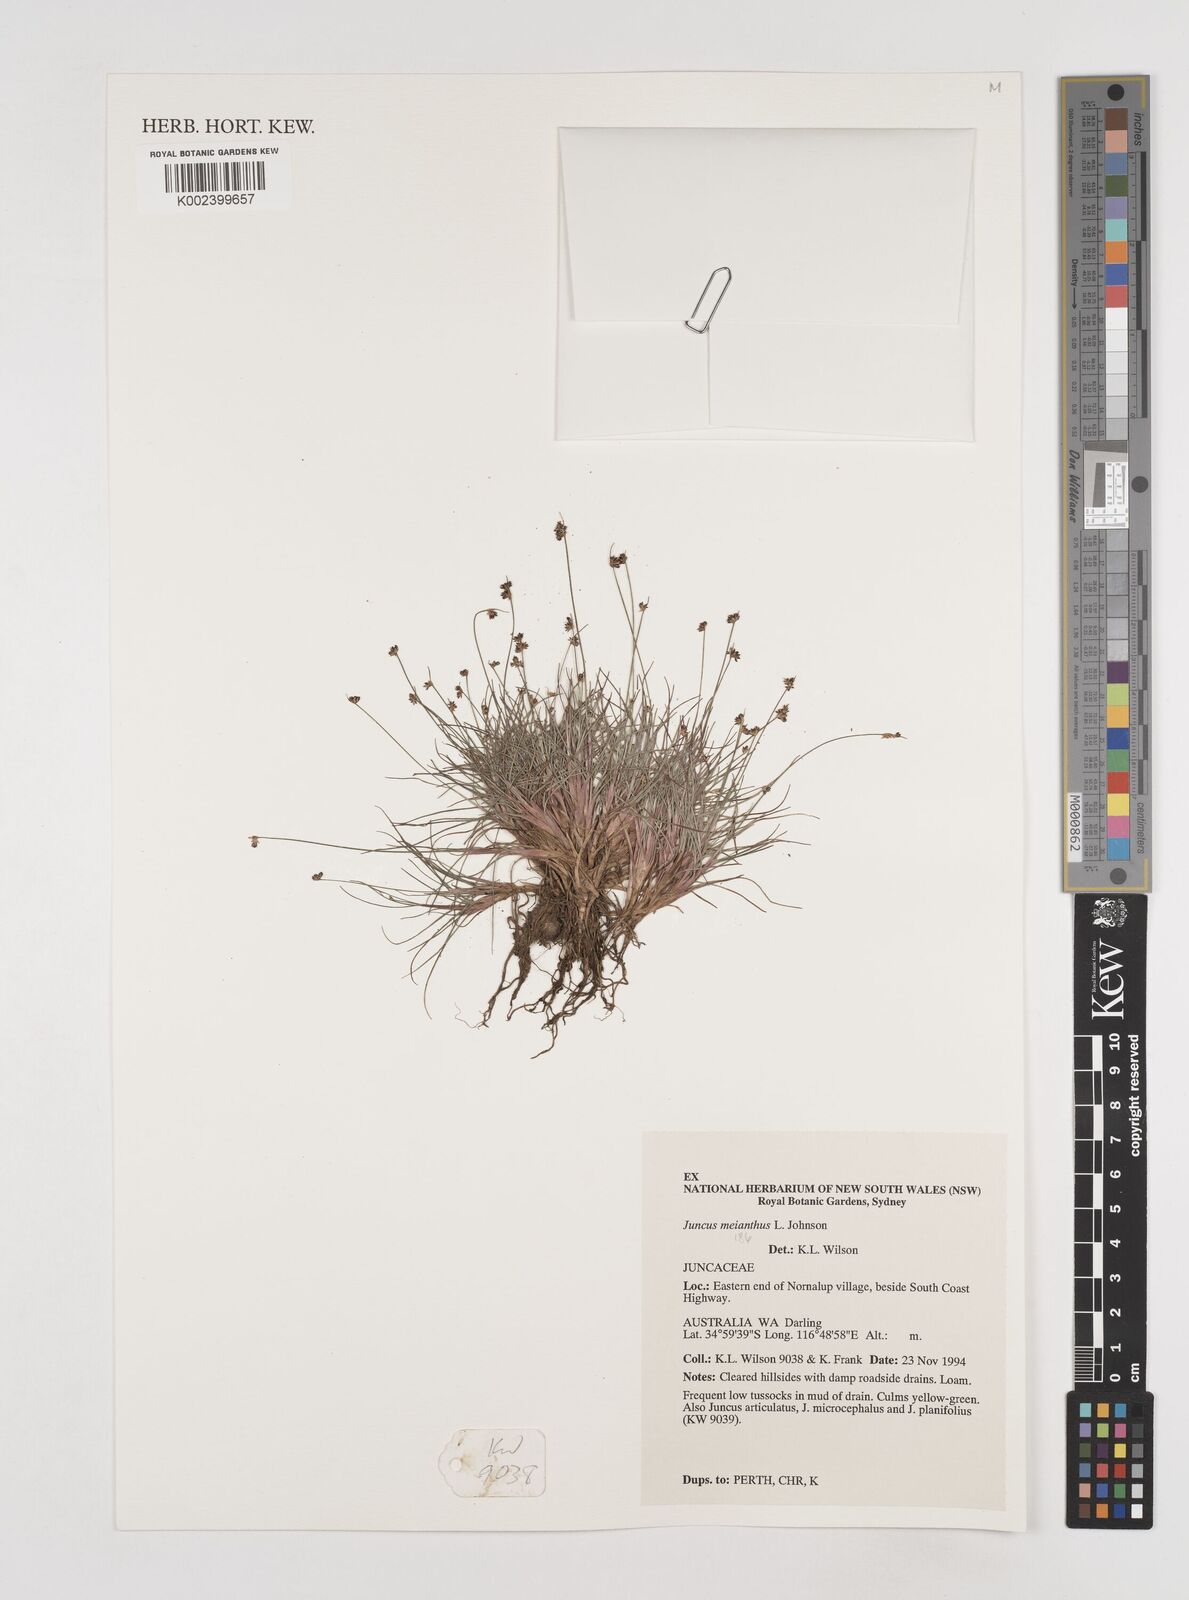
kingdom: Plantae
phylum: Tracheophyta
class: Liliopsida
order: Poales
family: Juncaceae
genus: Juncus
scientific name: Juncus meianthus
